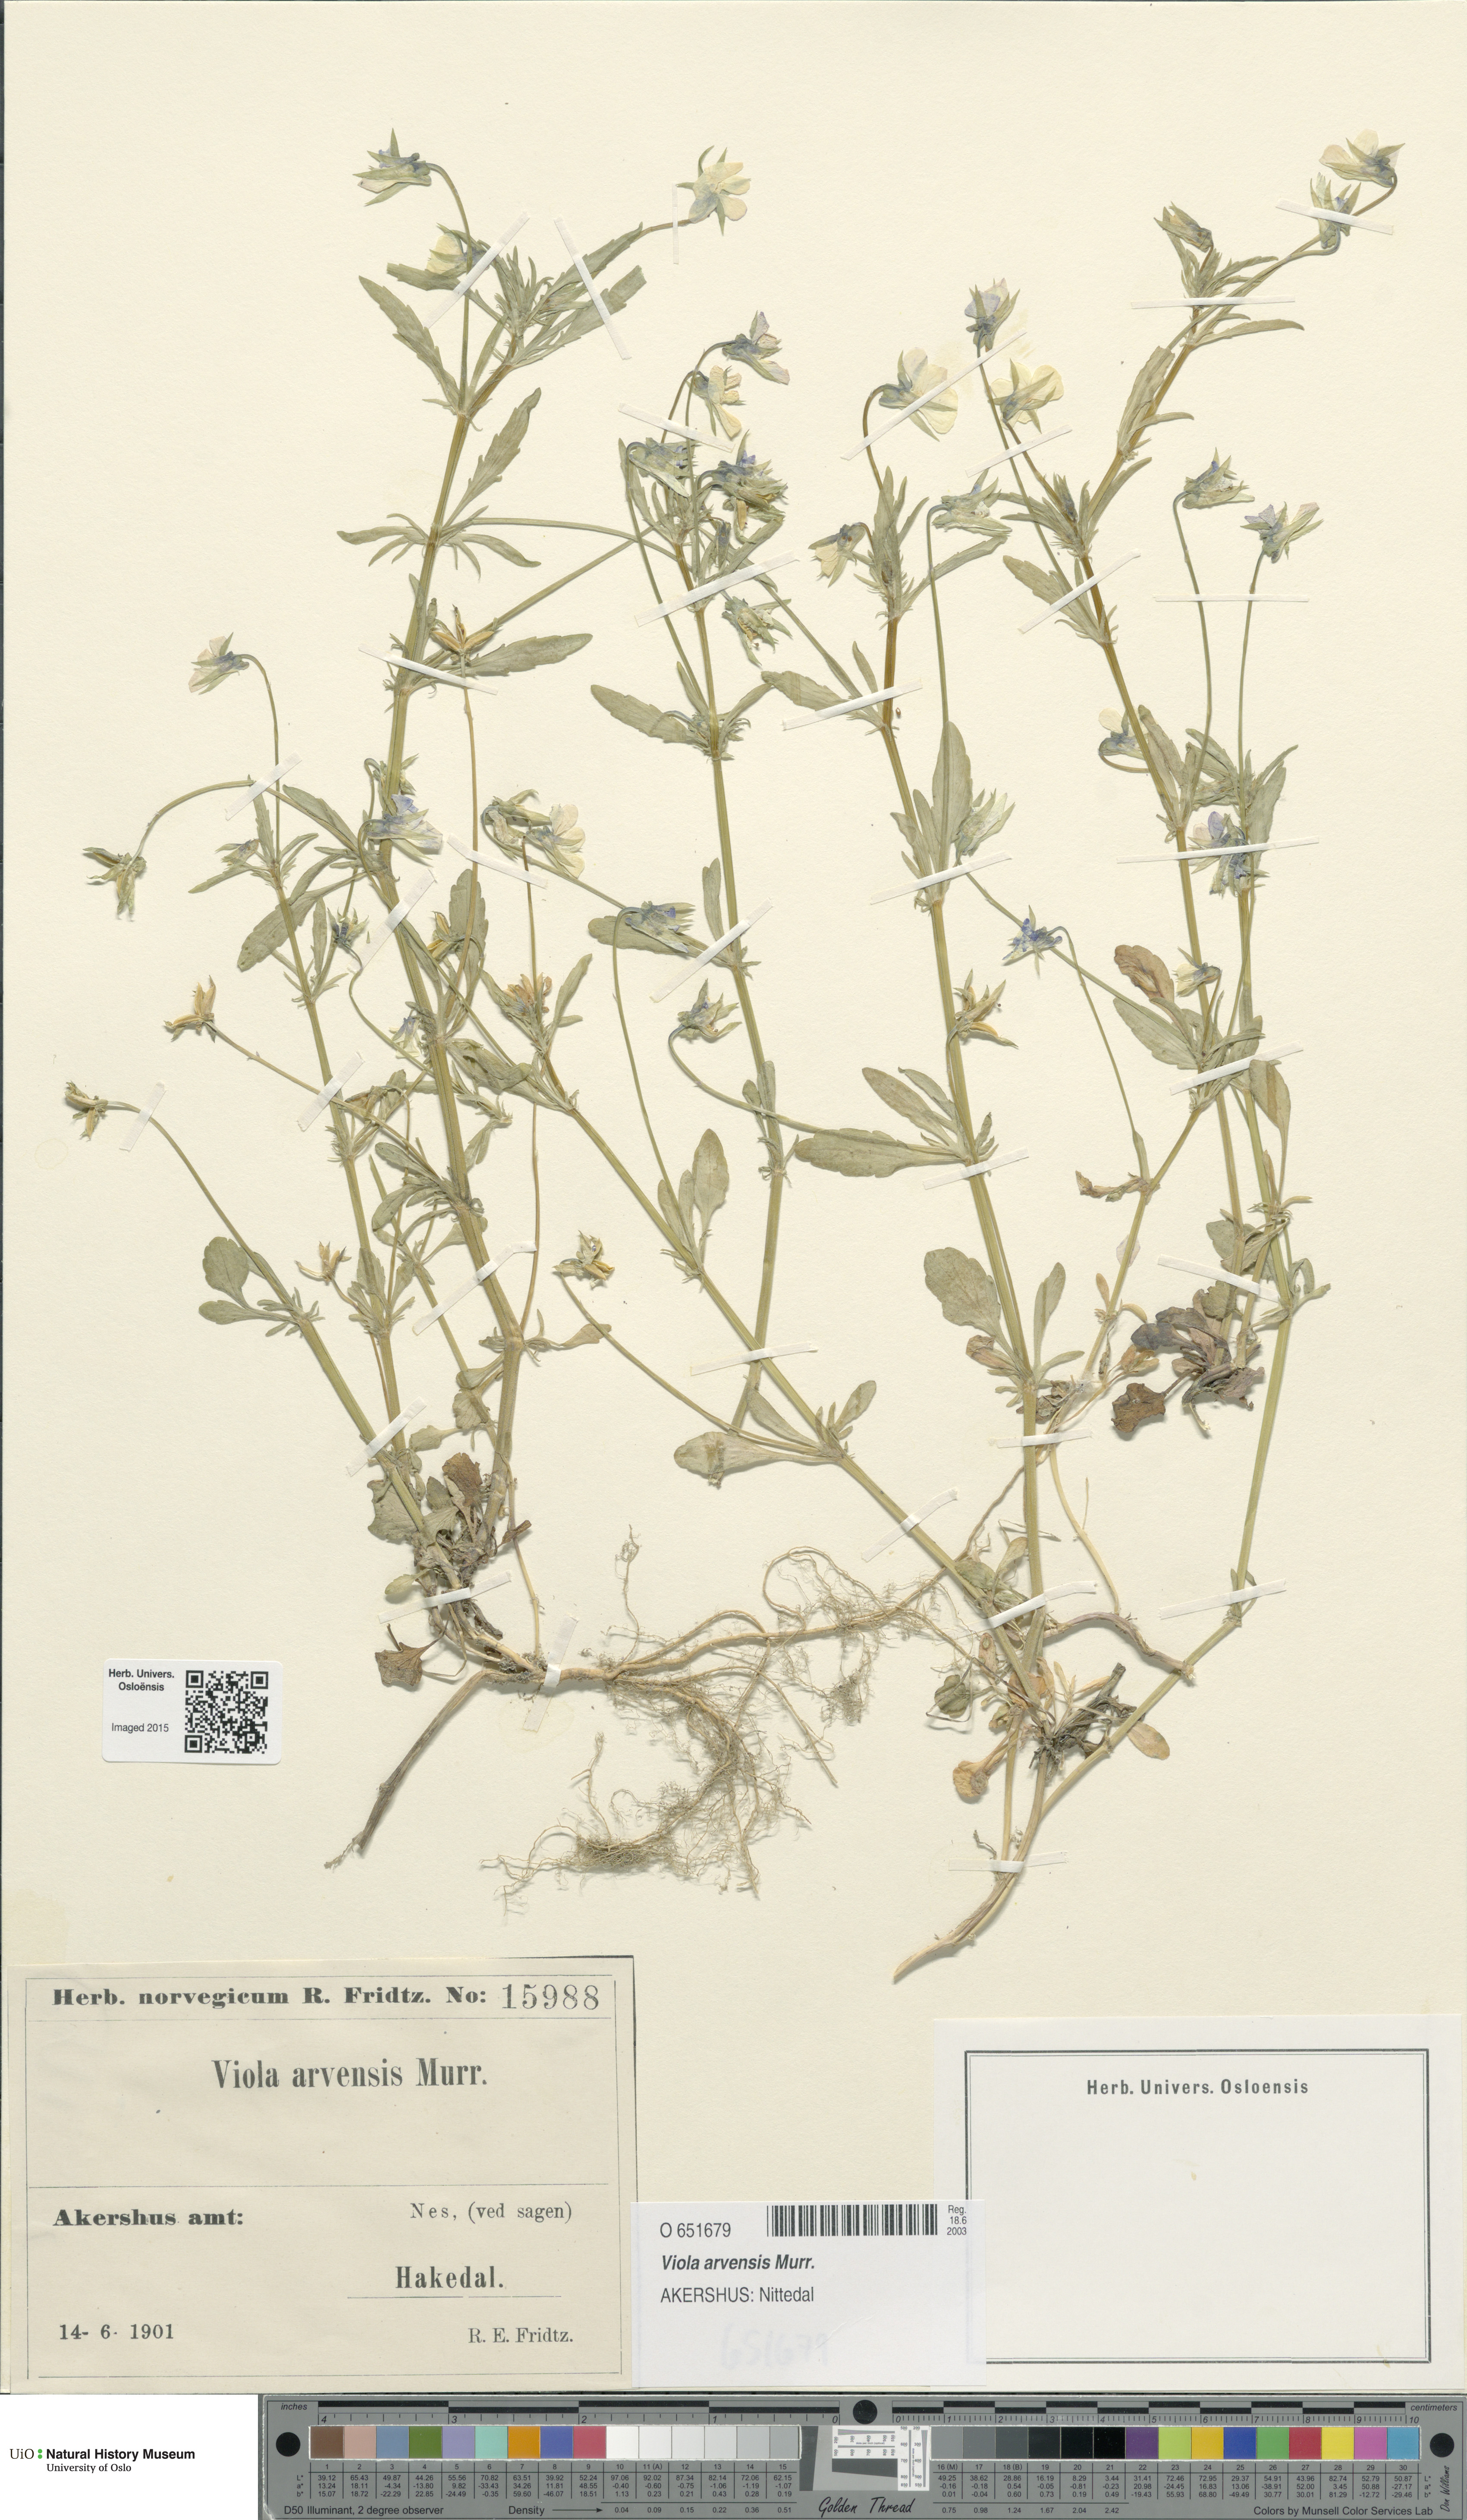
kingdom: Plantae
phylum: Tracheophyta
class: Magnoliopsida
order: Malpighiales
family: Violaceae
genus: Viola
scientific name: Viola arvensis
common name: Field pansy
